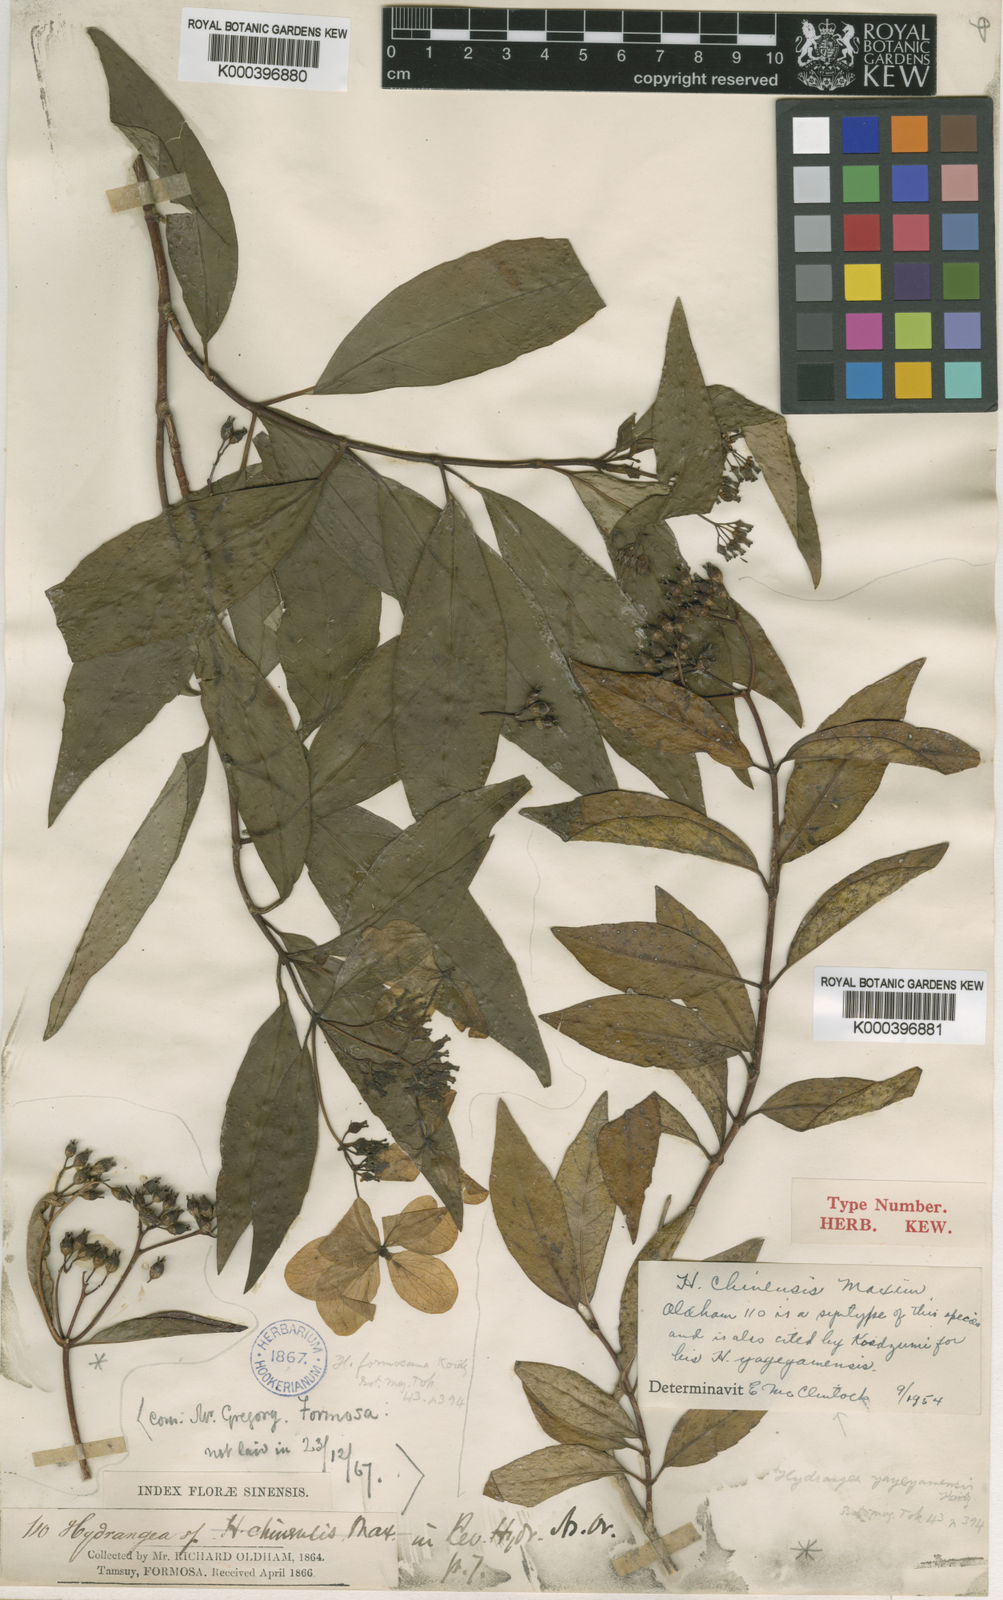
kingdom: Plantae
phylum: Tracheophyta
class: Magnoliopsida
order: Cornales
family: Hydrangeaceae
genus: Hydrangea
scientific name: Hydrangea chinensis
